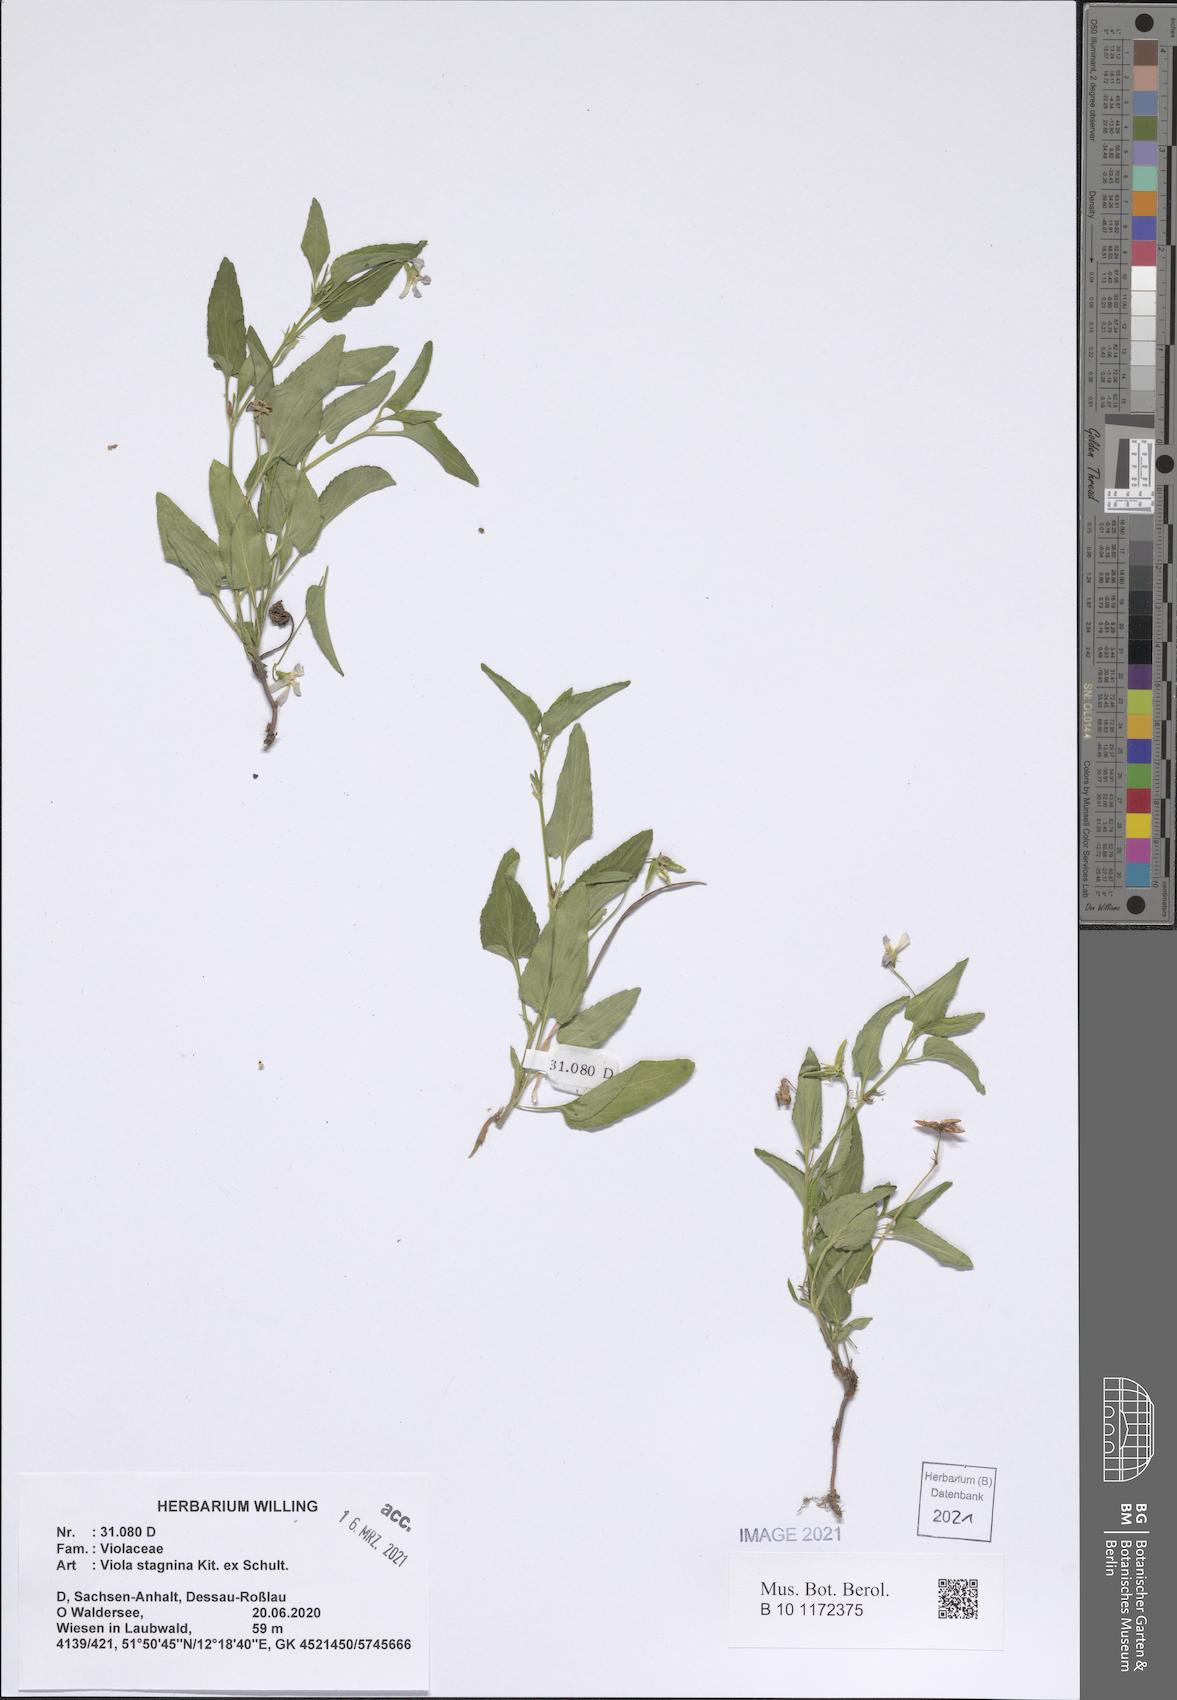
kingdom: Plantae
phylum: Tracheophyta
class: Magnoliopsida
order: Malpighiales
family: Violaceae
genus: Viola
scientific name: Viola stagnina
